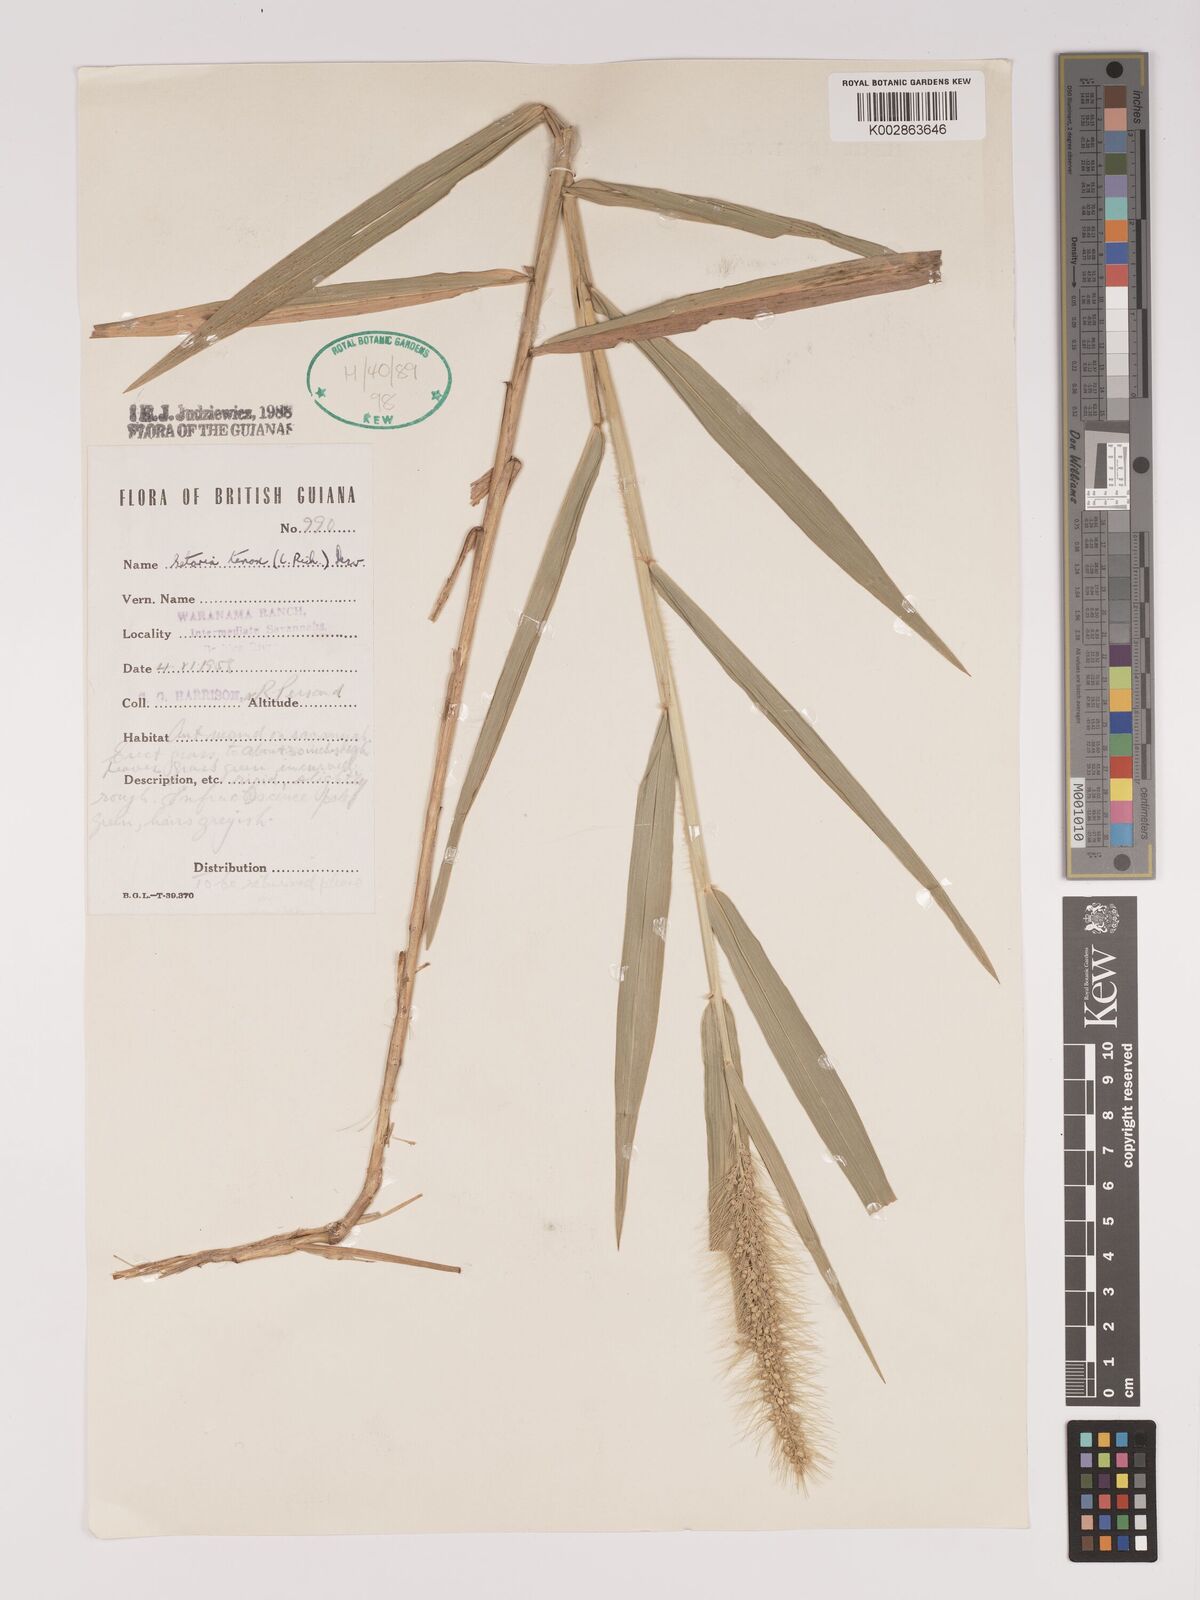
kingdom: Plantae
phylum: Tracheophyta
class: Liliopsida
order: Poales
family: Poaceae
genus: Setaria
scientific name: Setaria tenax
